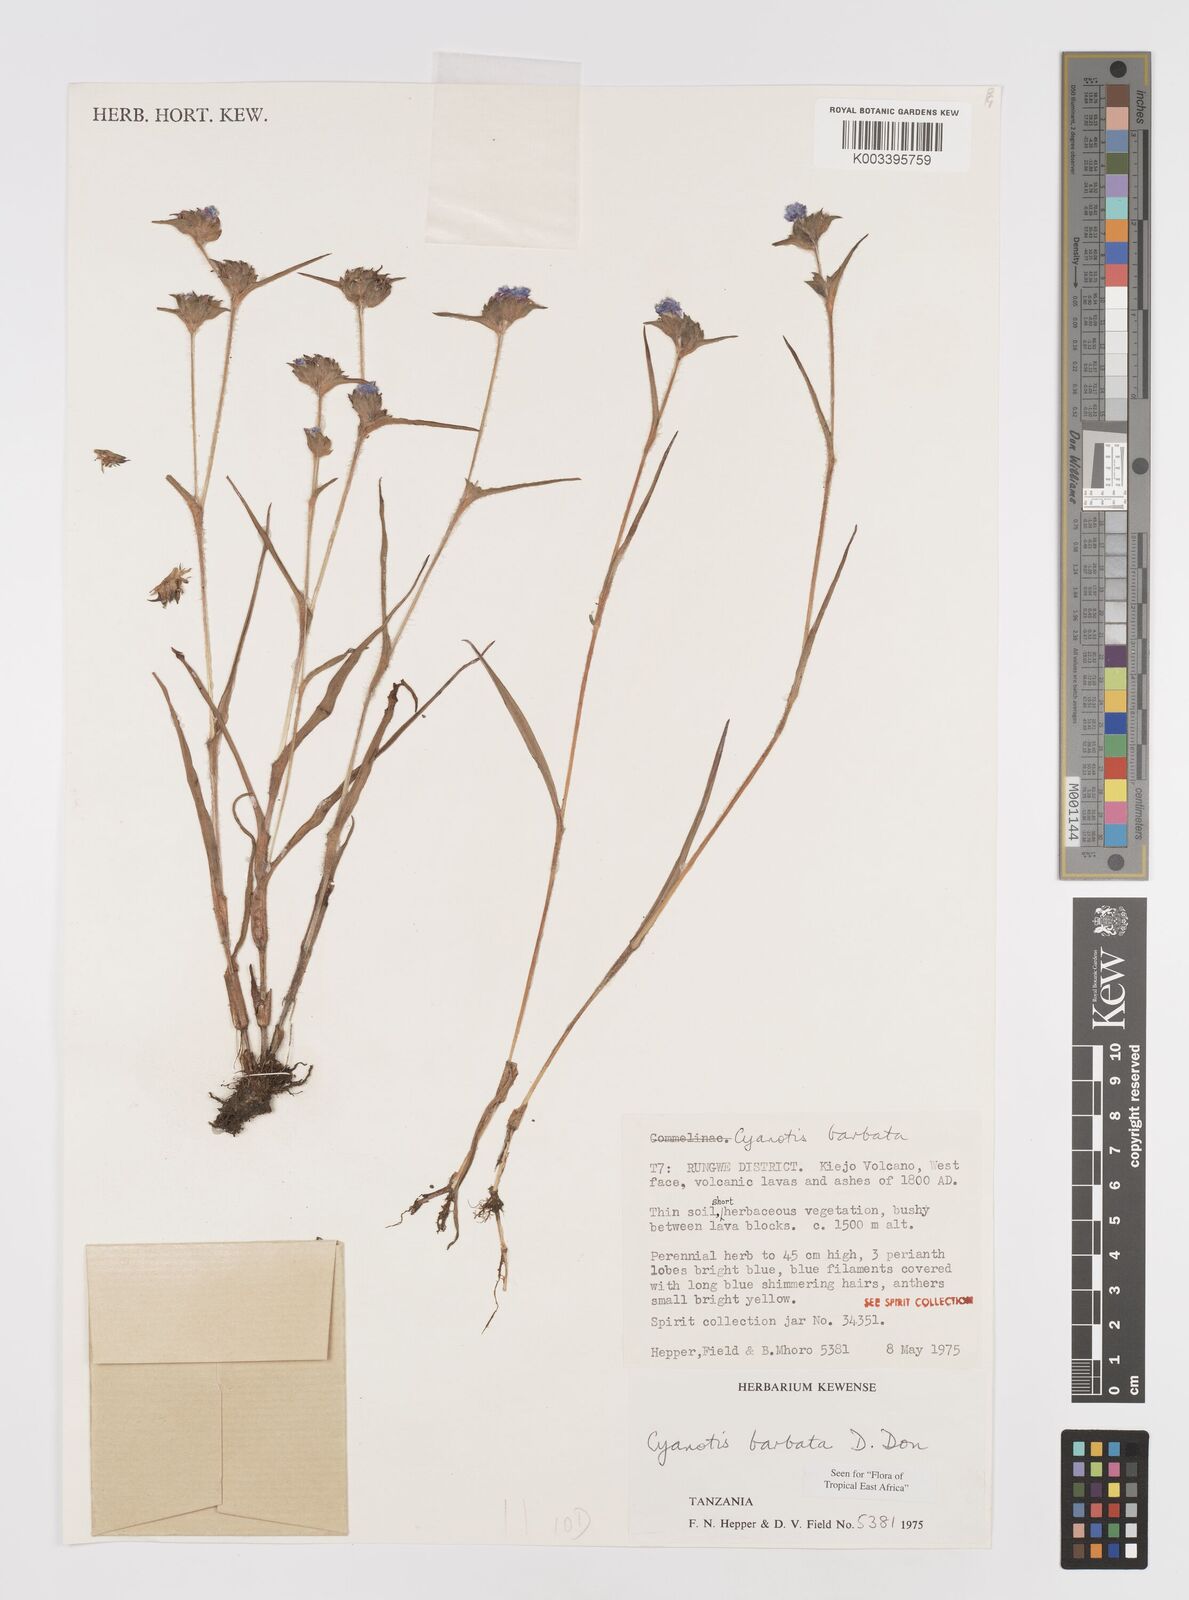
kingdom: Plantae
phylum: Tracheophyta
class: Liliopsida
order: Commelinales
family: Commelinaceae
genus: Cyanotis
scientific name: Cyanotis vaga
